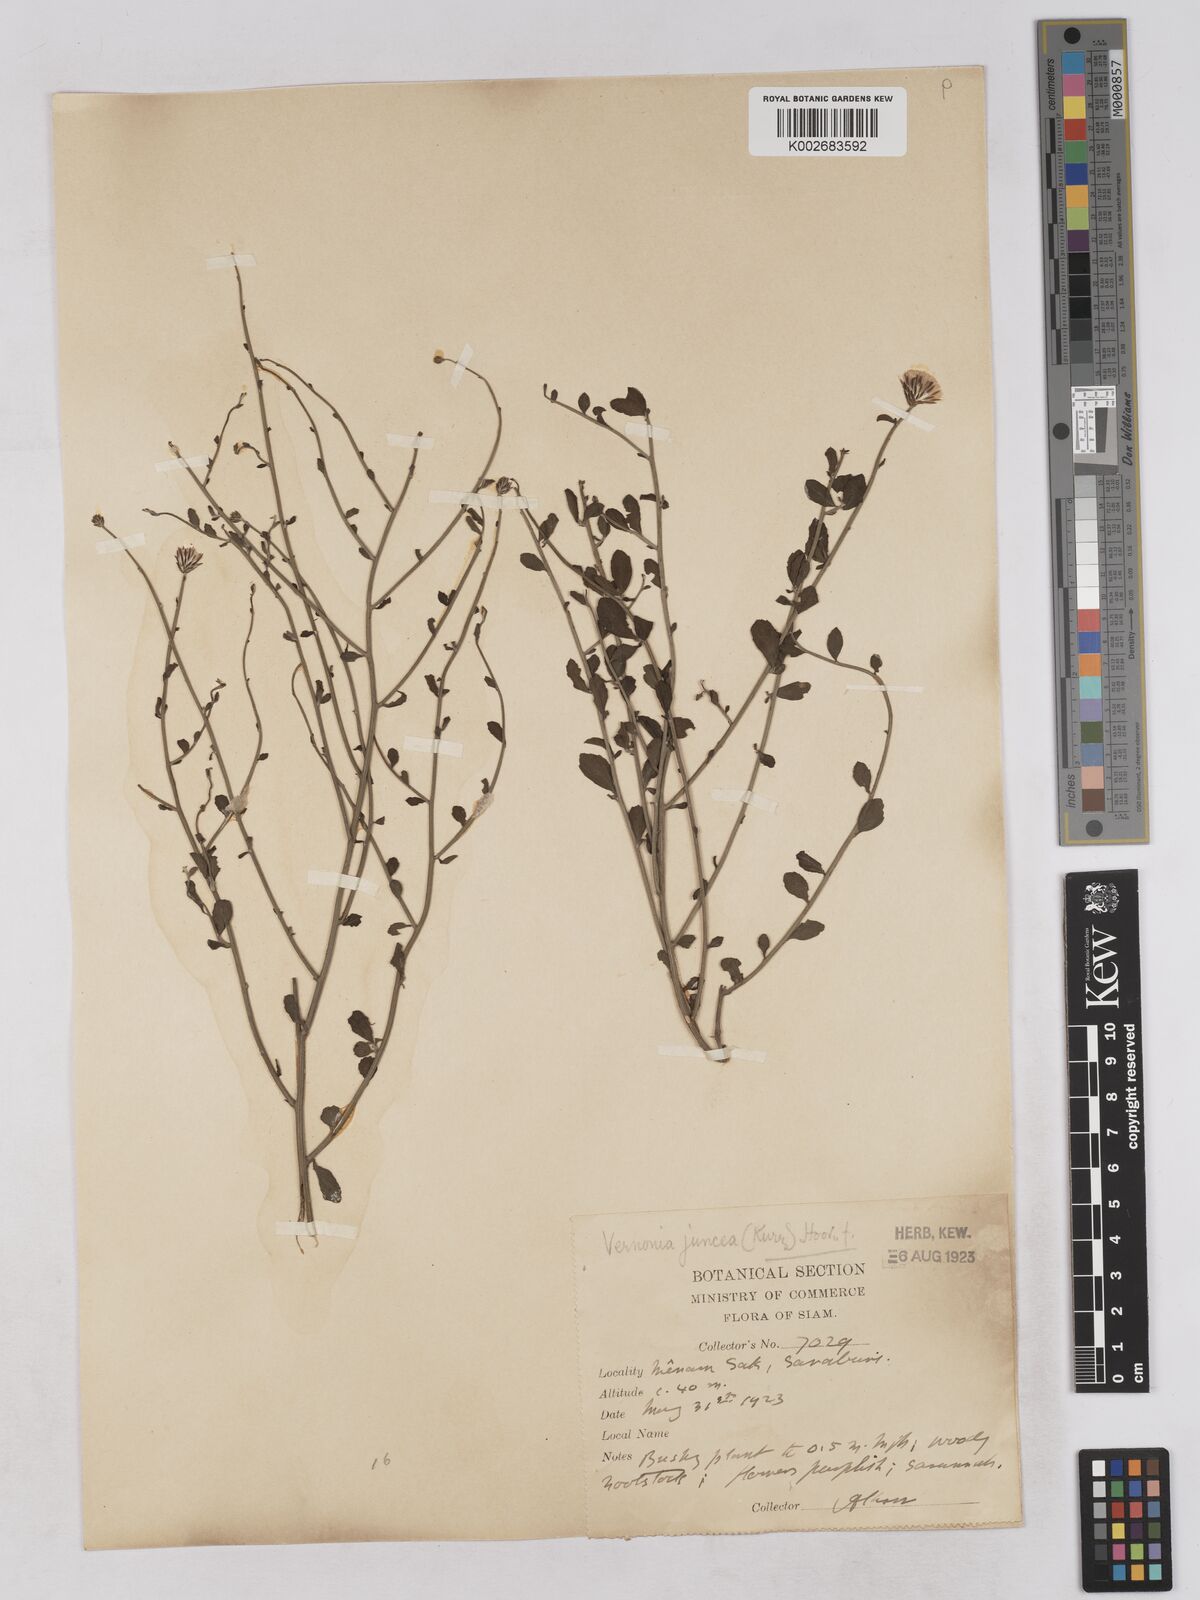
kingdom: Plantae
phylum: Tracheophyta
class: Magnoliopsida
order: Asterales
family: Asteraceae
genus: Vernonia
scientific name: Vernonia
